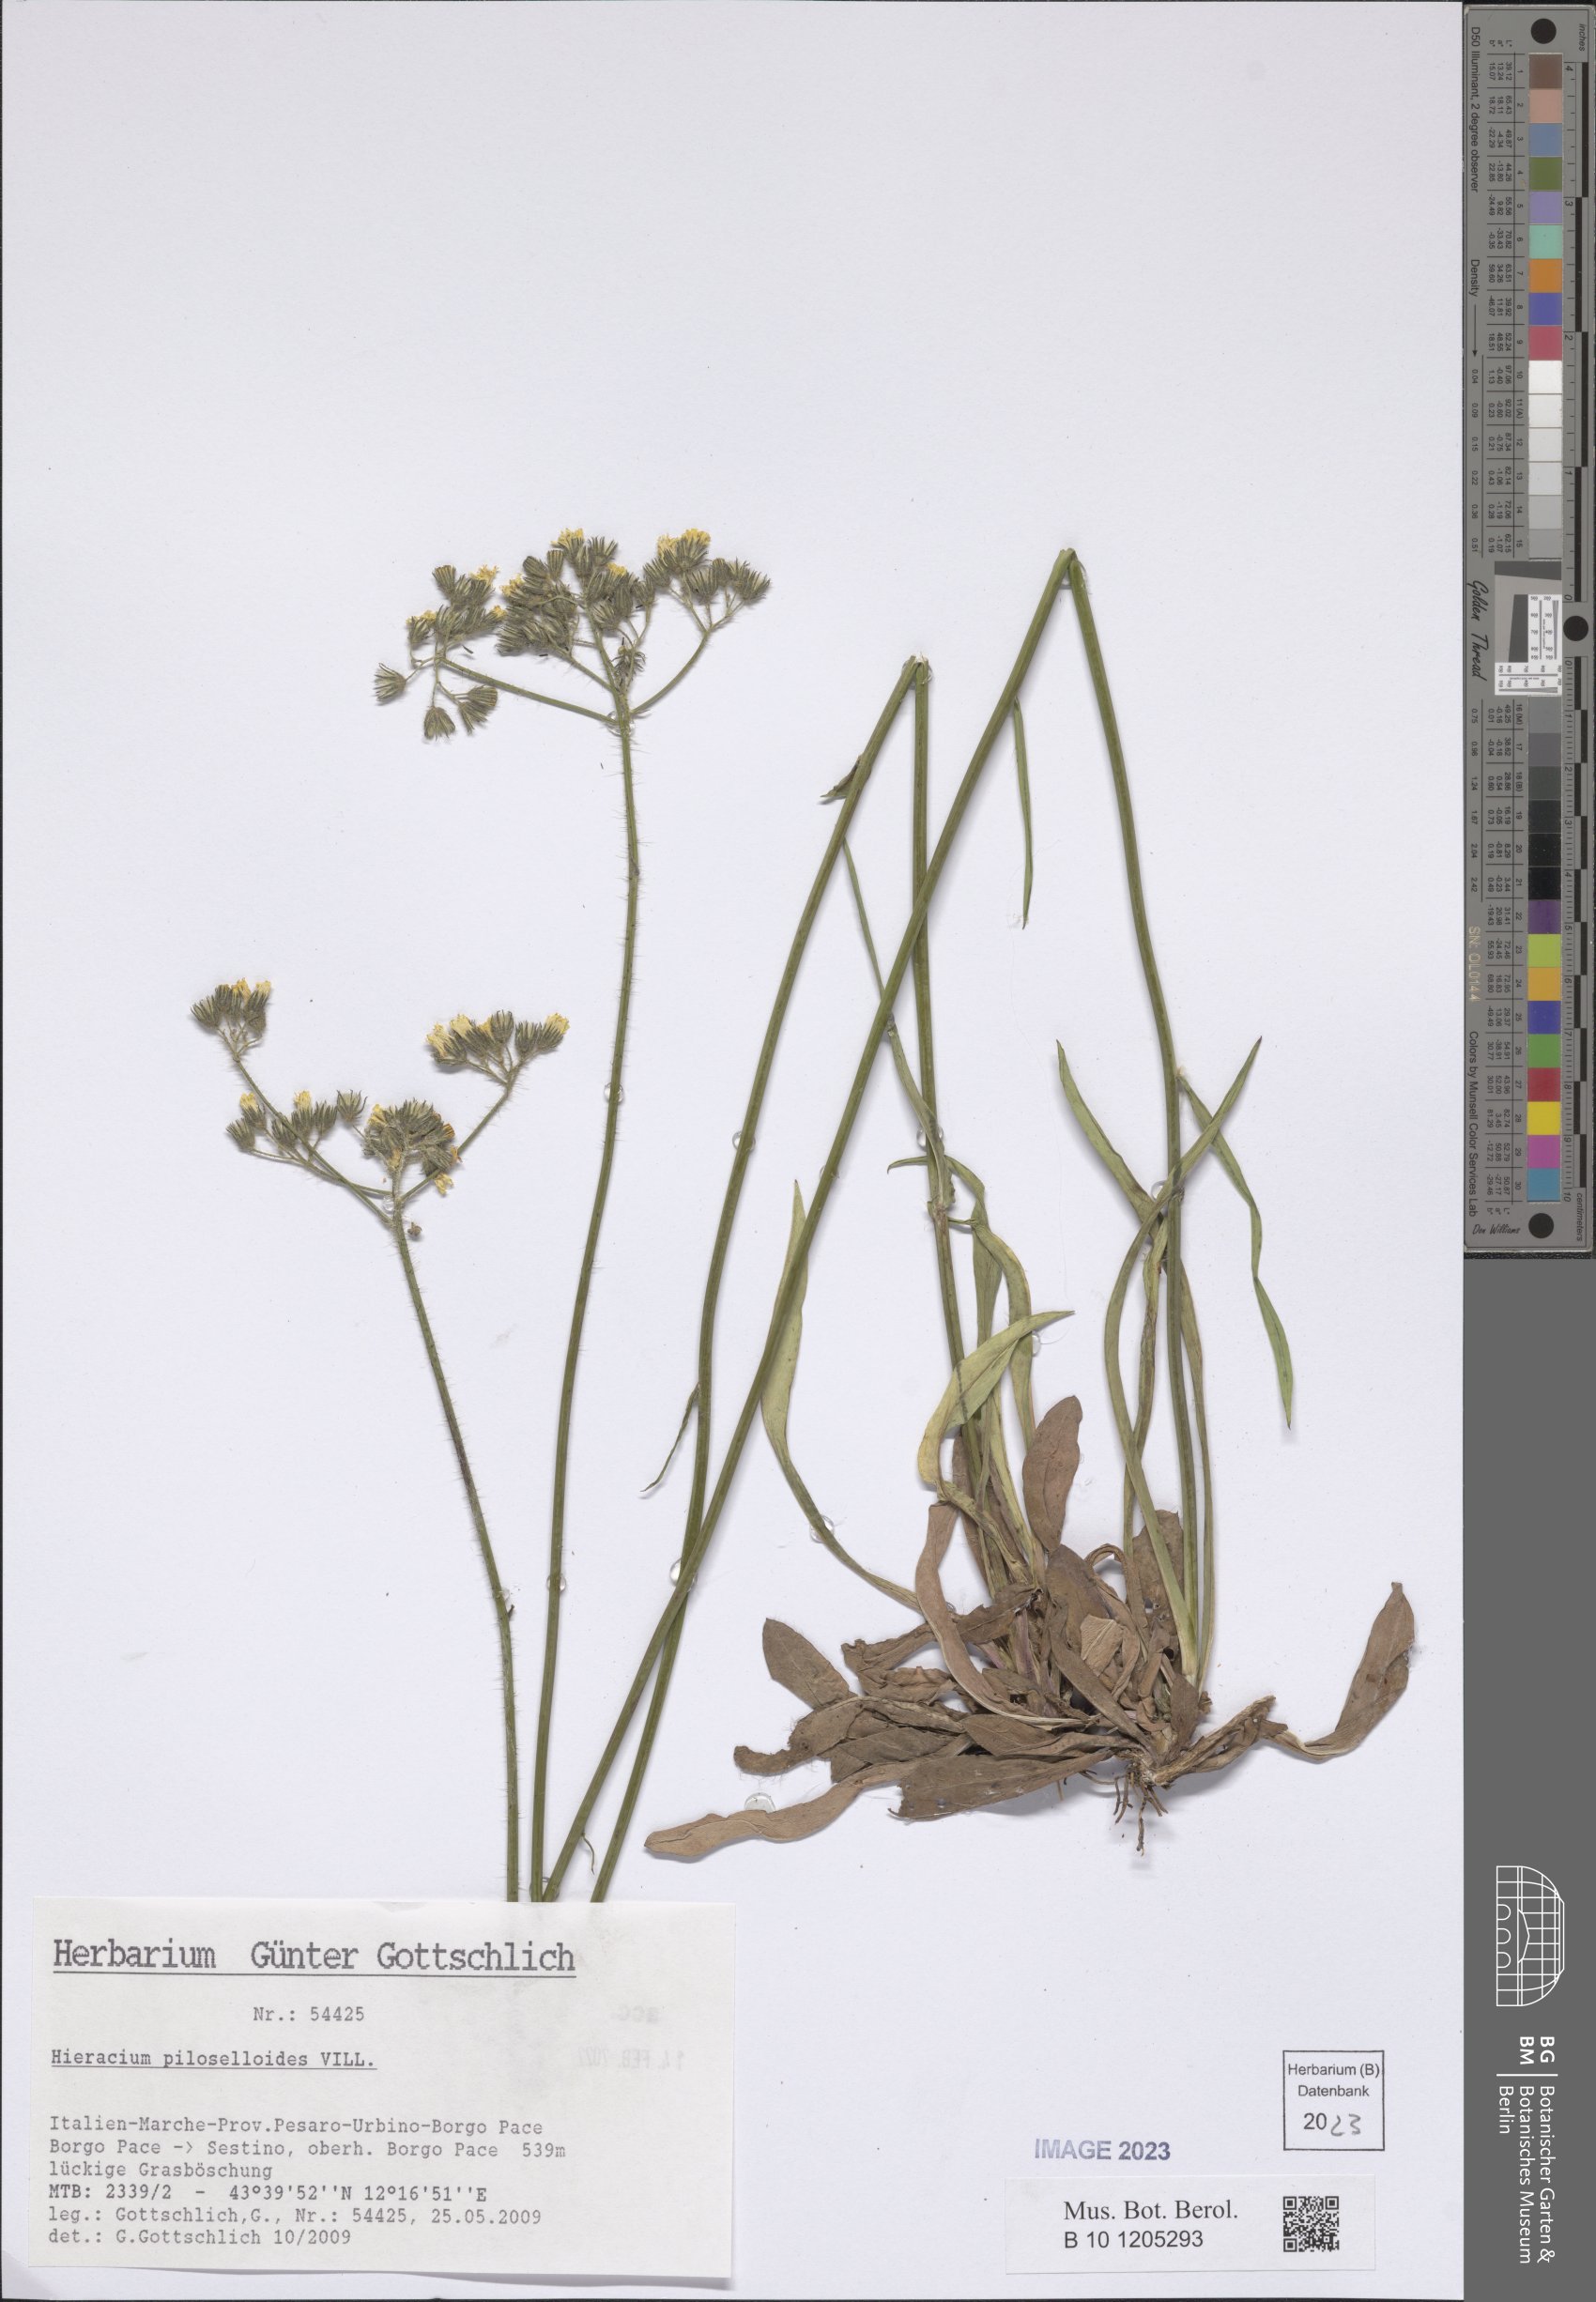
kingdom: Plantae
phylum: Tracheophyta
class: Magnoliopsida
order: Asterales
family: Asteraceae
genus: Pilosella
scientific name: Pilosella piloselloides
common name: Glaucous king-devil
